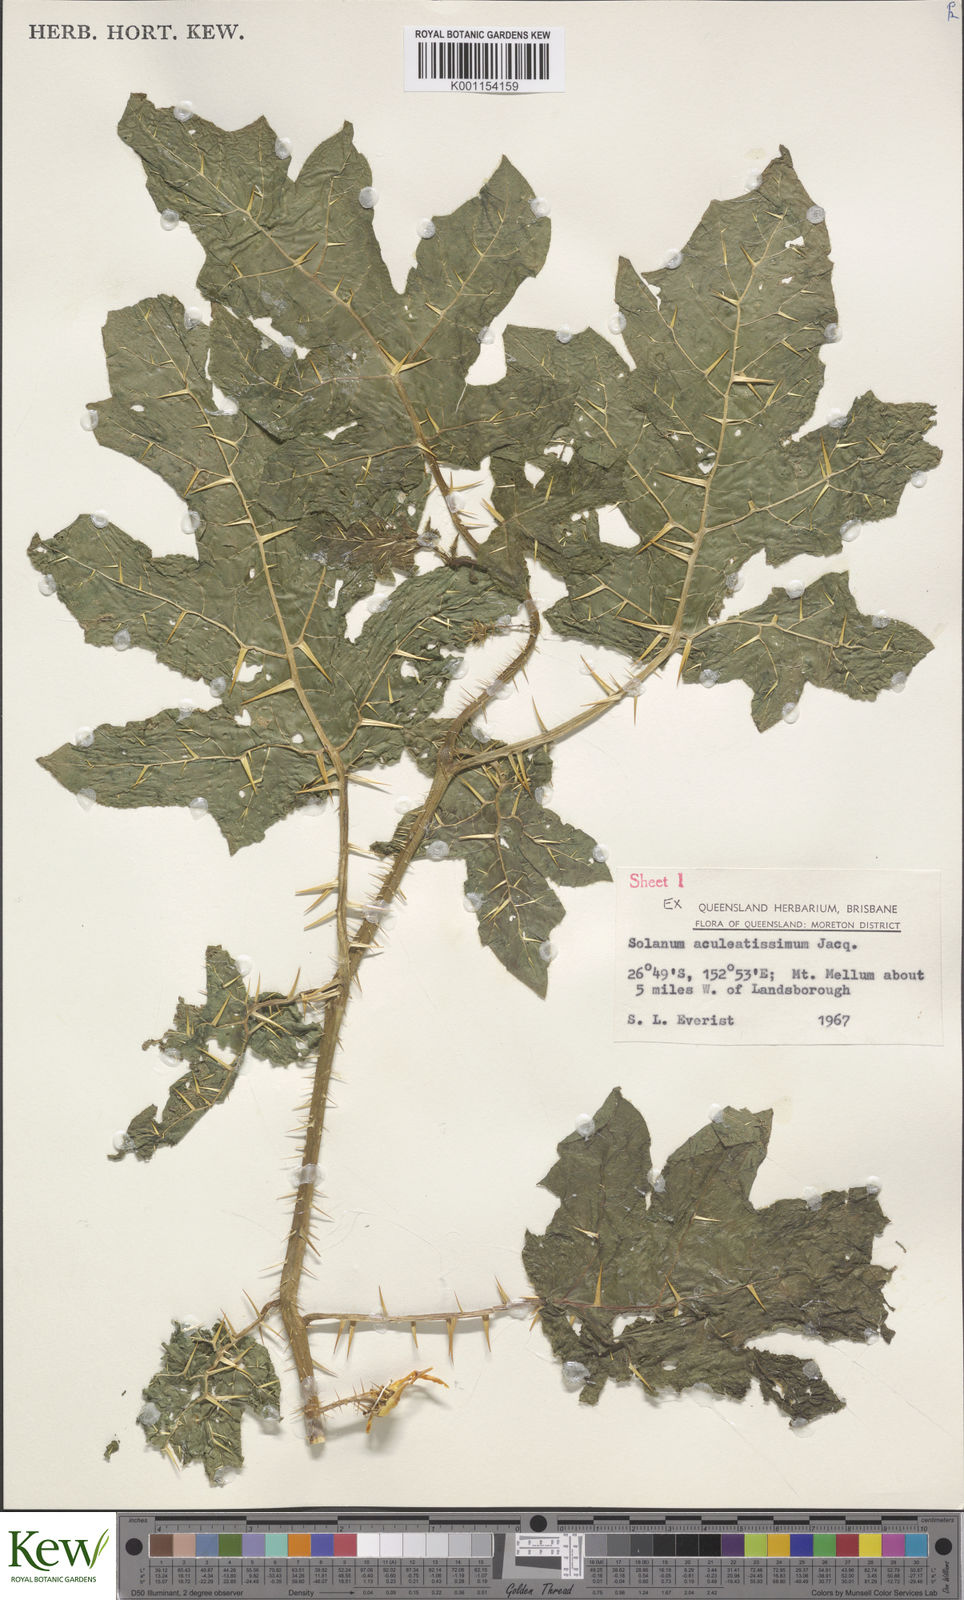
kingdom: Plantae
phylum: Tracheophyta
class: Magnoliopsida
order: Solanales
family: Solanaceae
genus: Solanum
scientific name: Solanum capsicoides
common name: Cockroach berry
